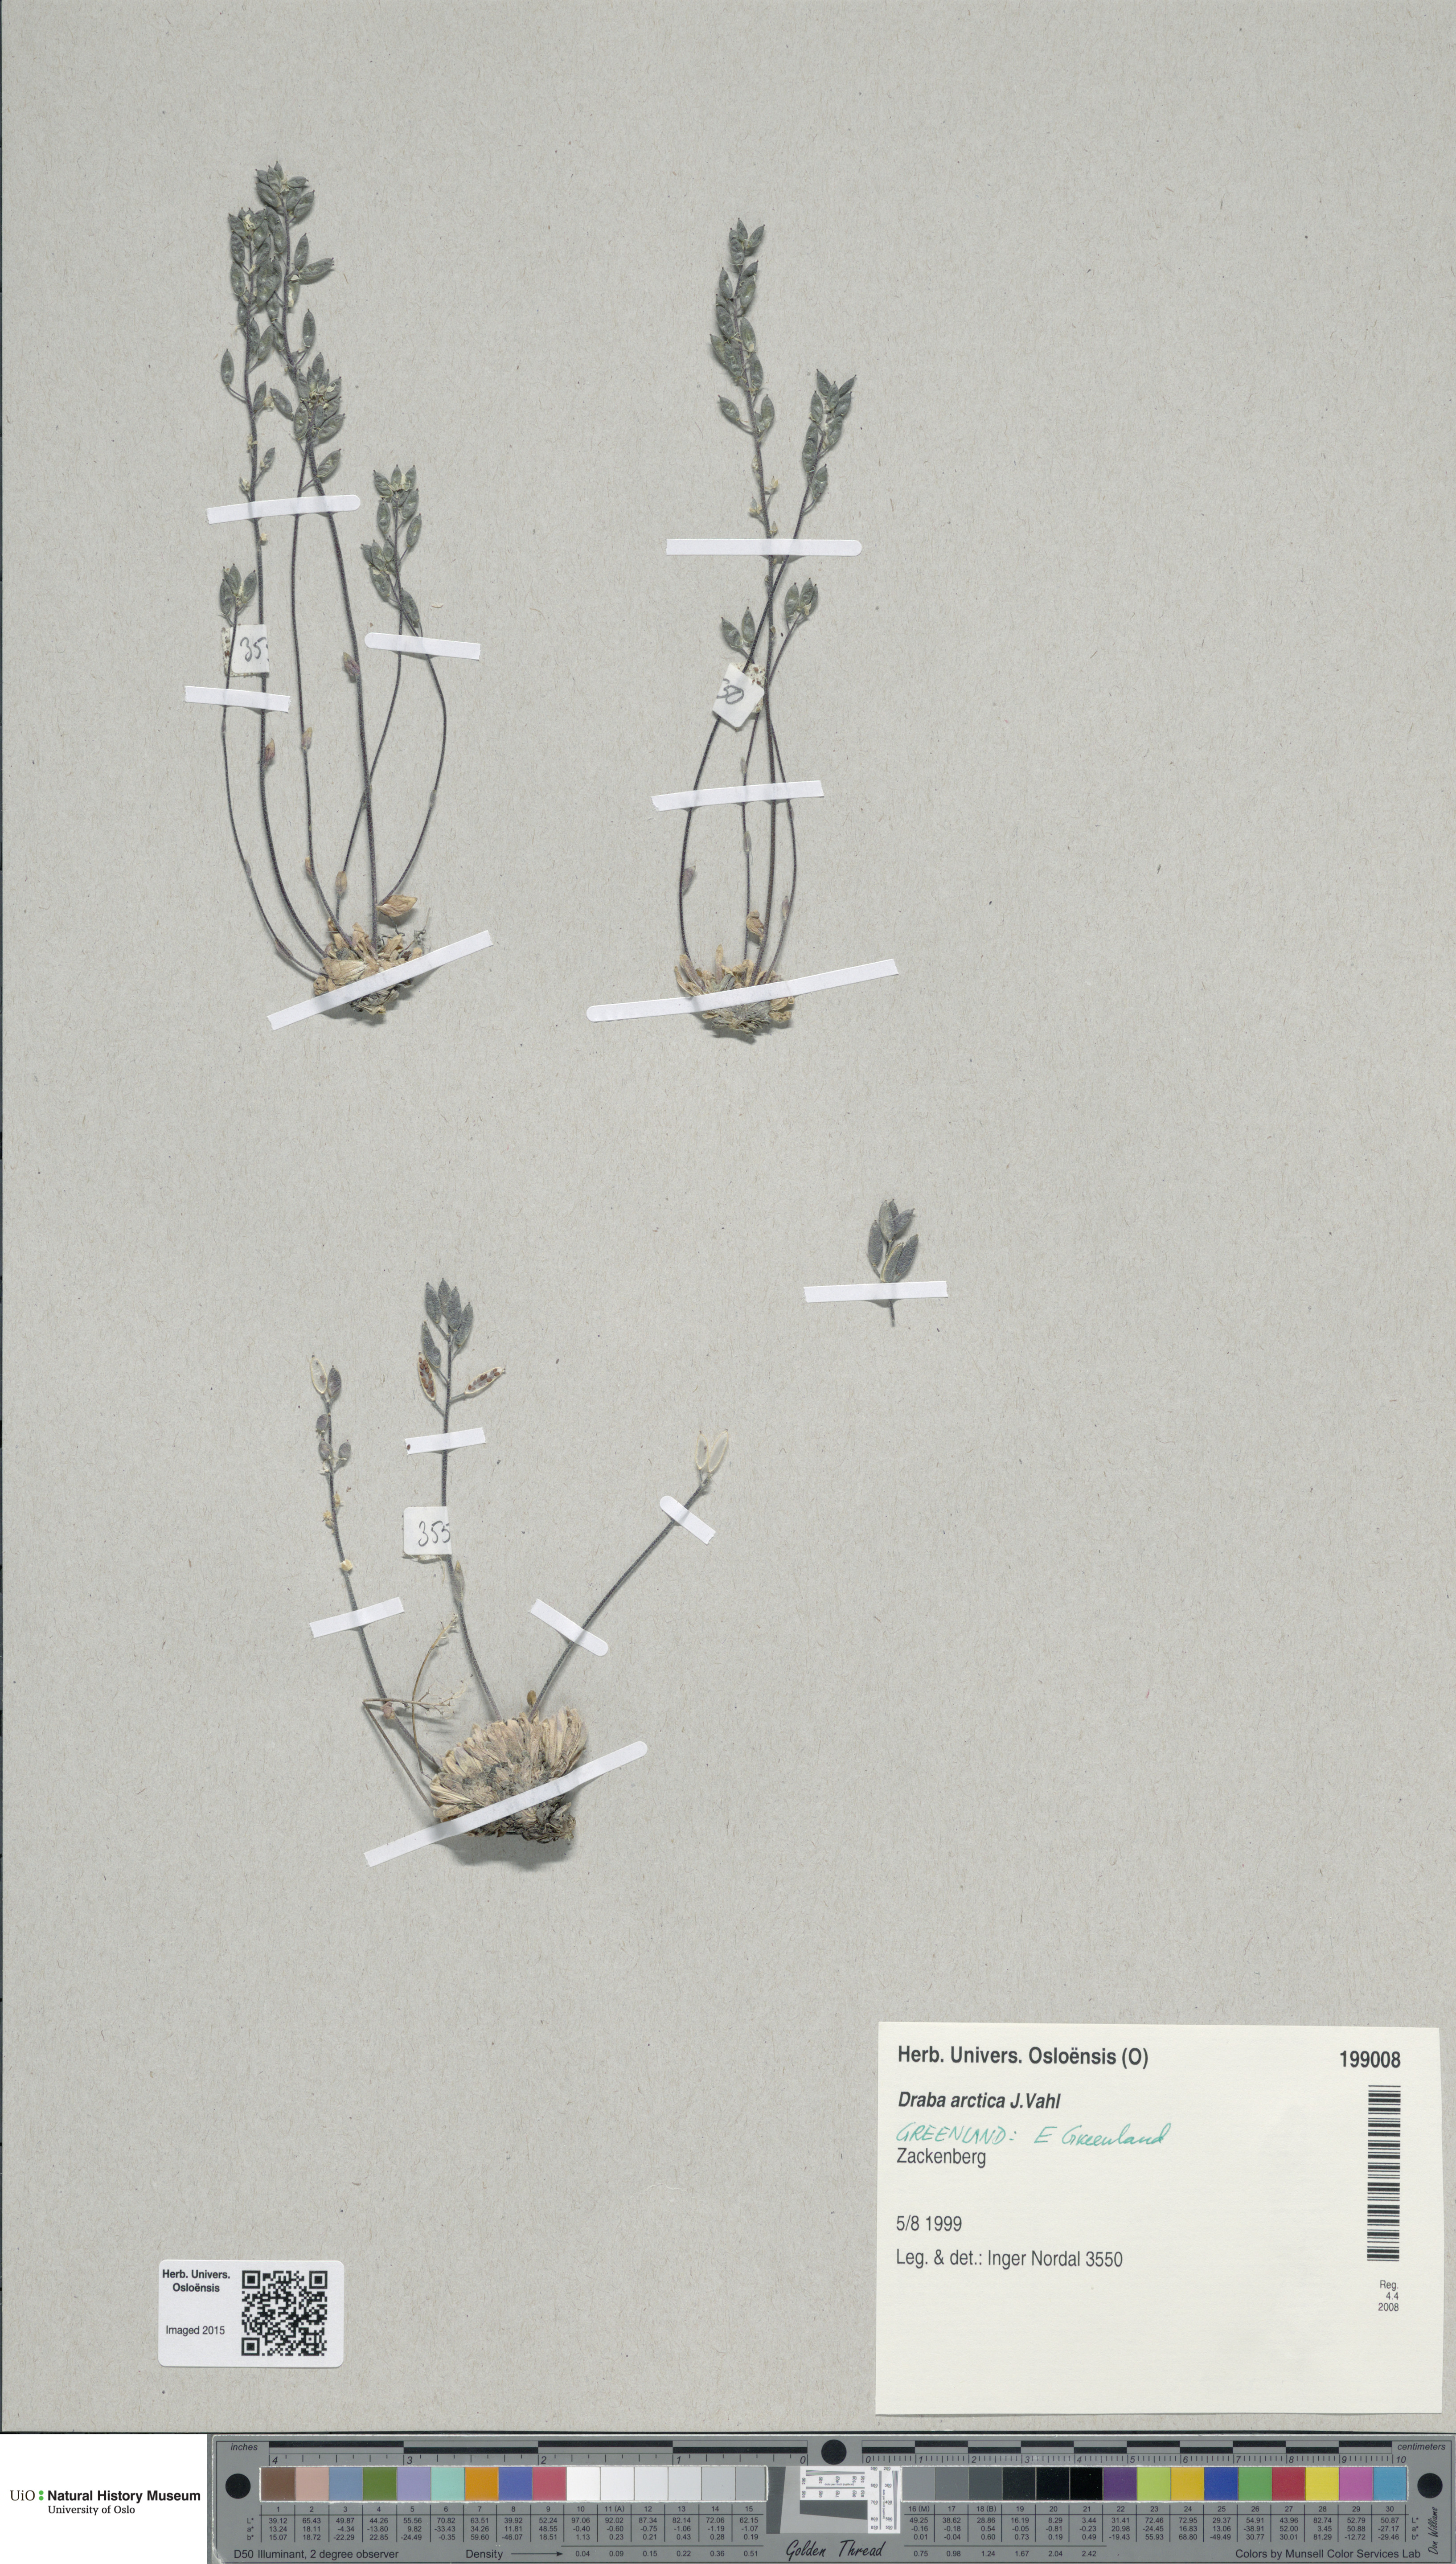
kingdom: Plantae
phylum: Tracheophyta
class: Magnoliopsida
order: Brassicales
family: Brassicaceae
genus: Draba
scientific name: Draba arctica
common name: Arctic draba
